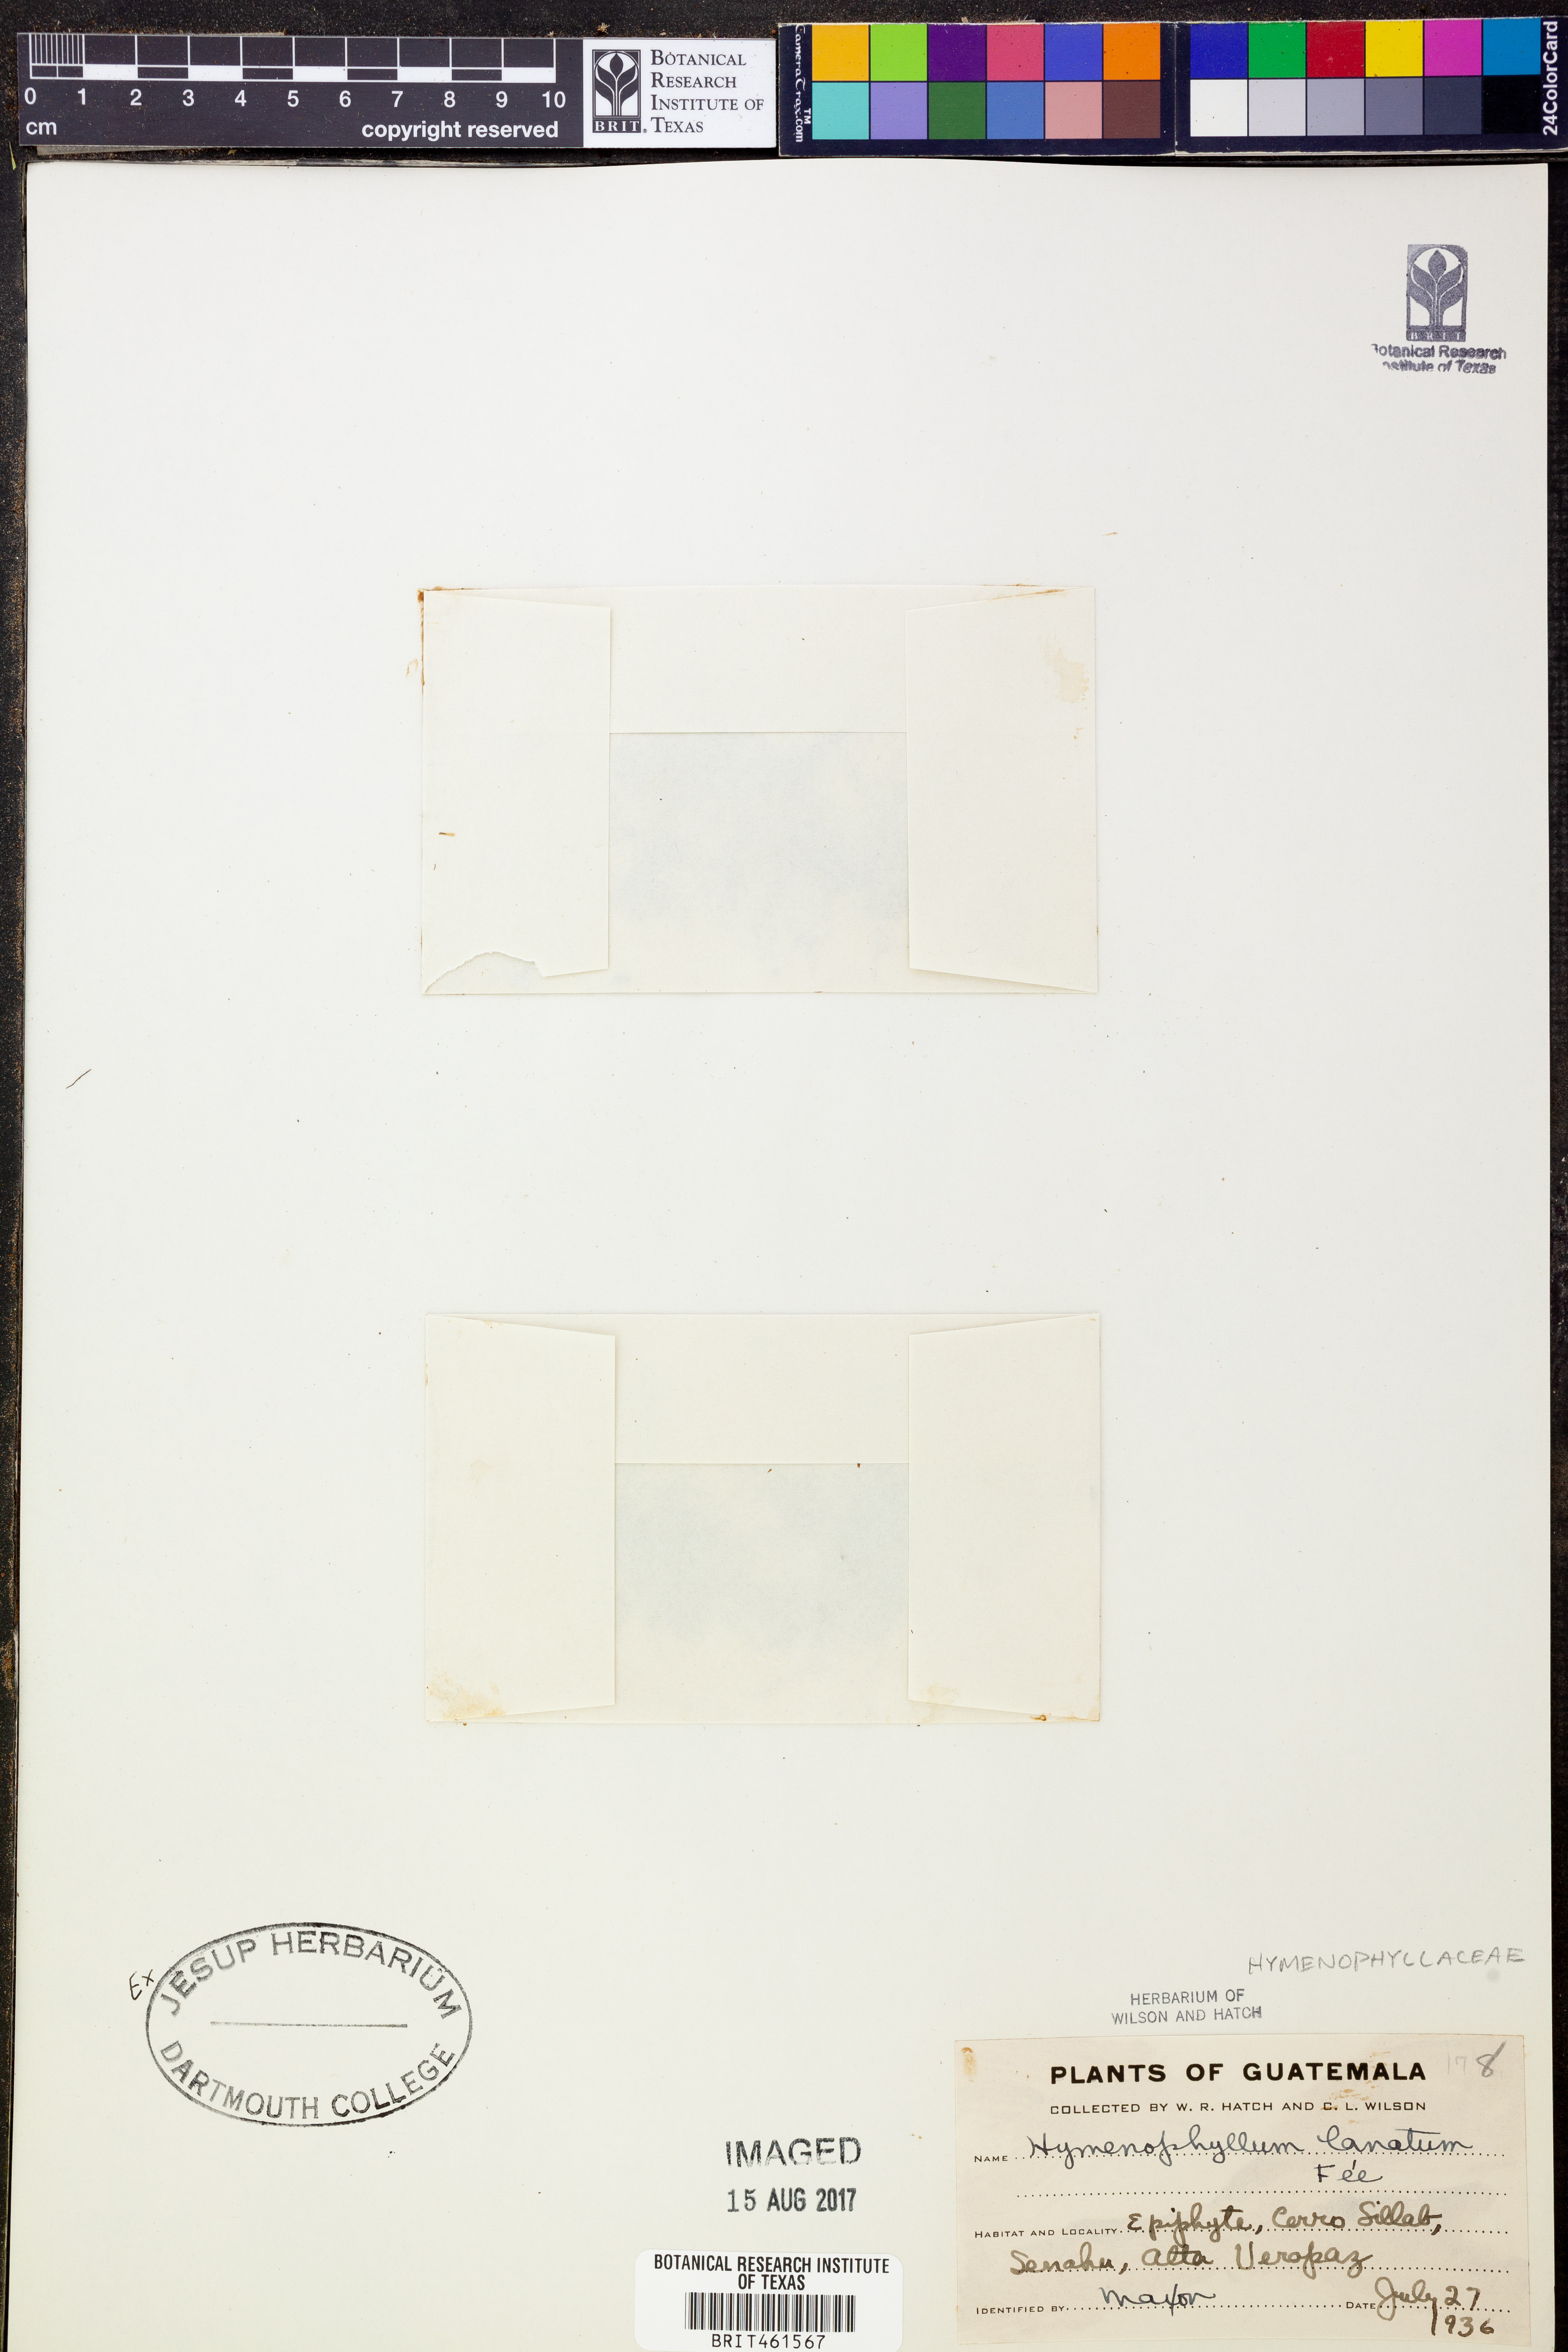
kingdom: Plantae
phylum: Tracheophyta
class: Polypodiopsida
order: Hymenophyllales
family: Hymenophyllaceae
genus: Hymenophyllum
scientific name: Hymenophyllum lanatum
